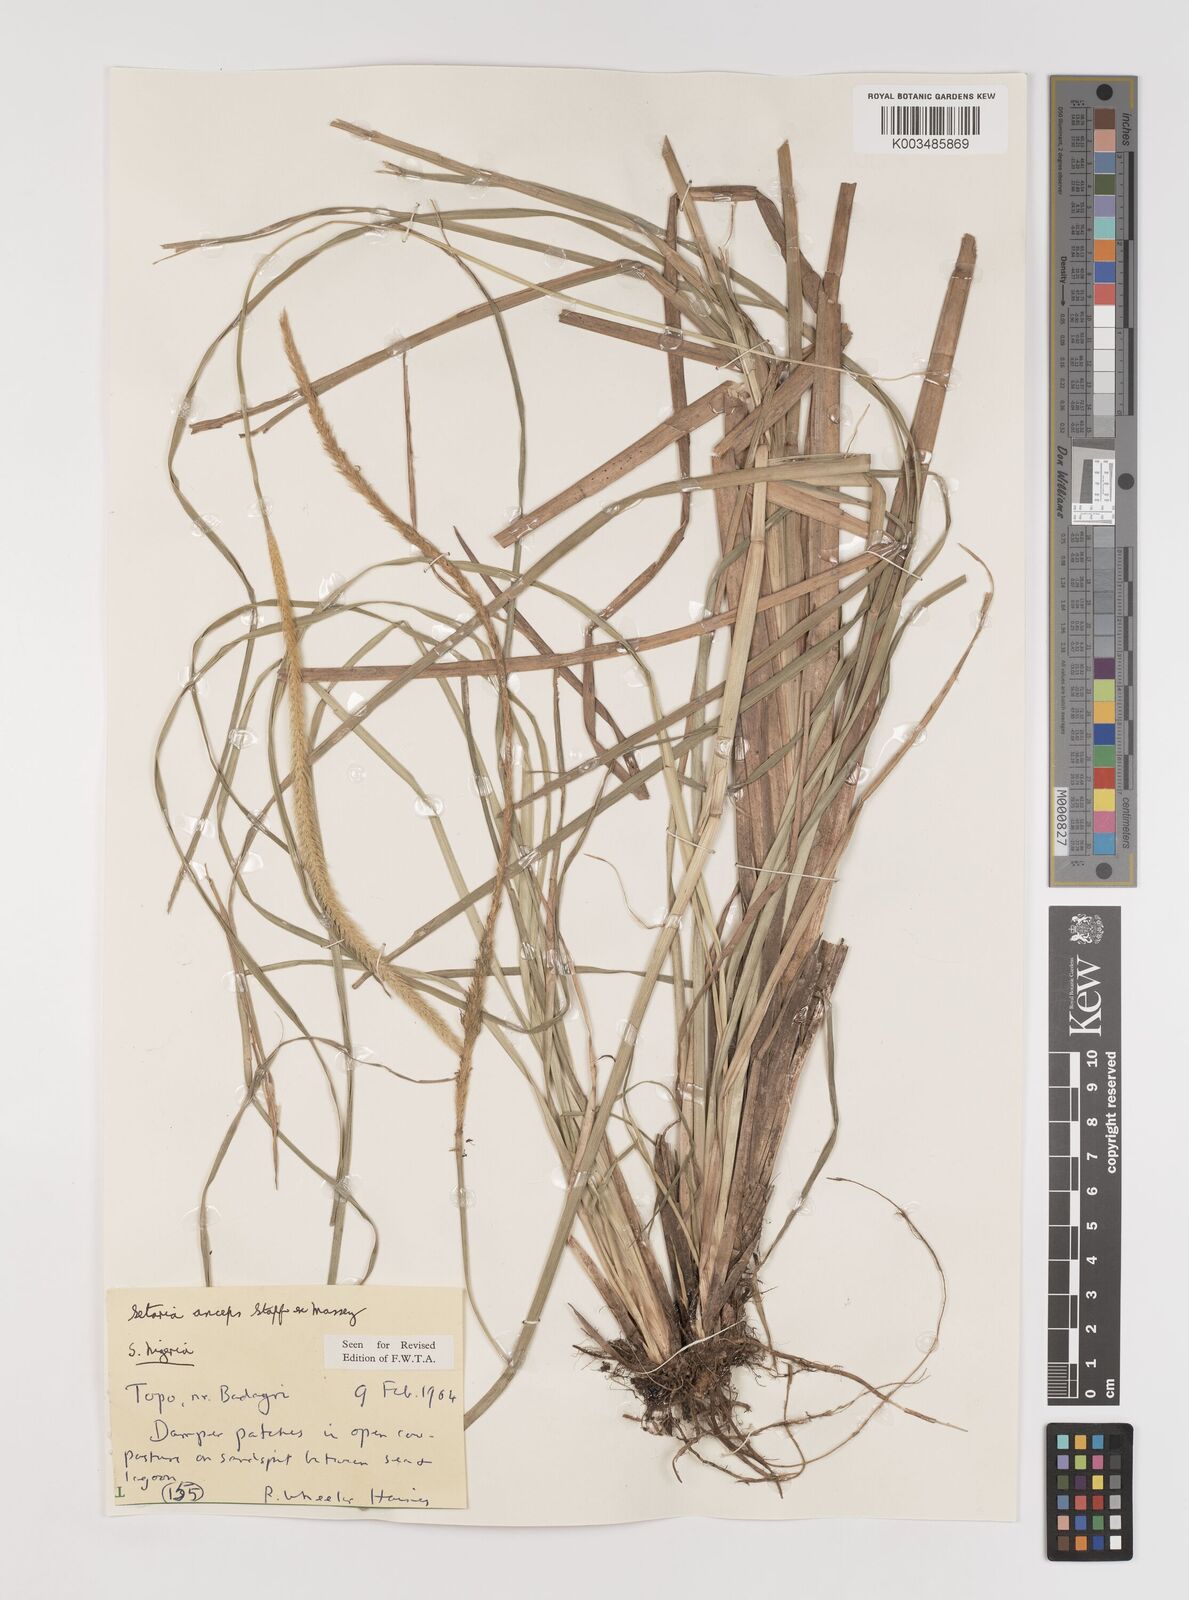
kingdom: Plantae
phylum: Tracheophyta
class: Liliopsida
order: Poales
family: Poaceae
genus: Setaria
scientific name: Setaria sphacelata
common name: African bristlegrass
